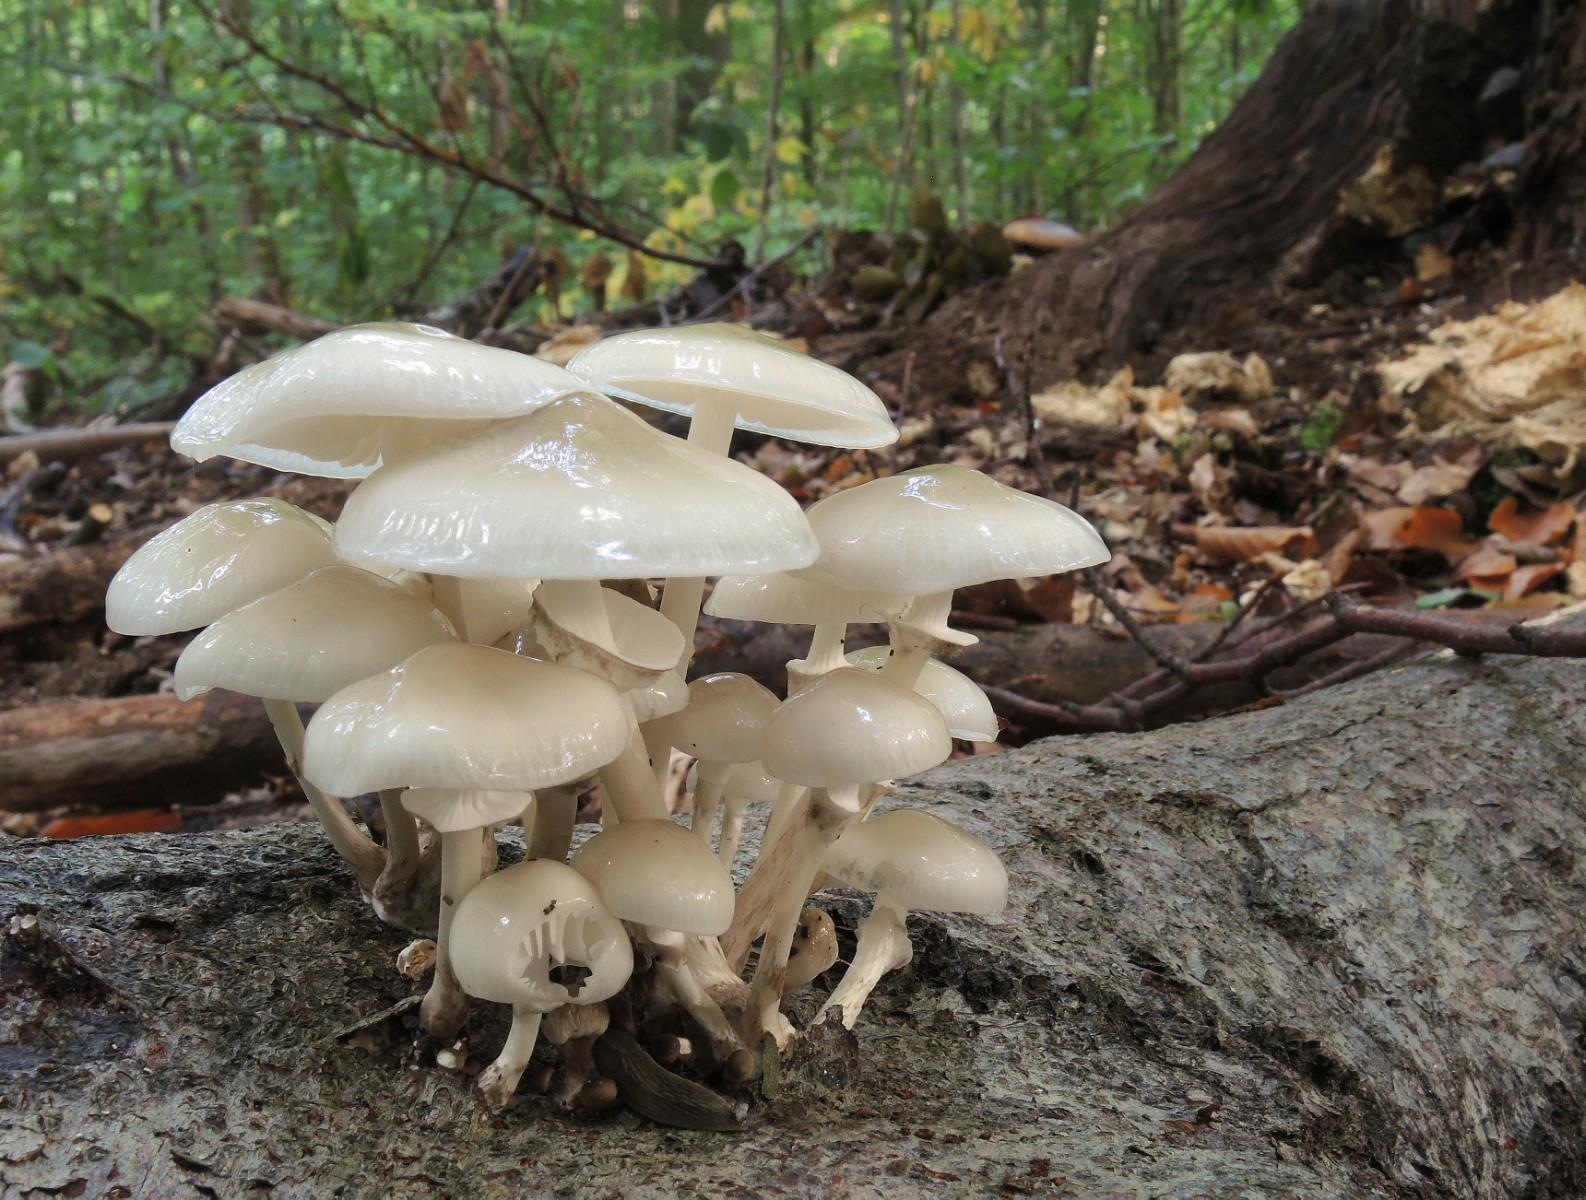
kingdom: Fungi
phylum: Basidiomycota
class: Agaricomycetes
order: Agaricales
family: Physalacriaceae
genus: Mucidula
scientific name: Mucidula
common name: porcelænshat
